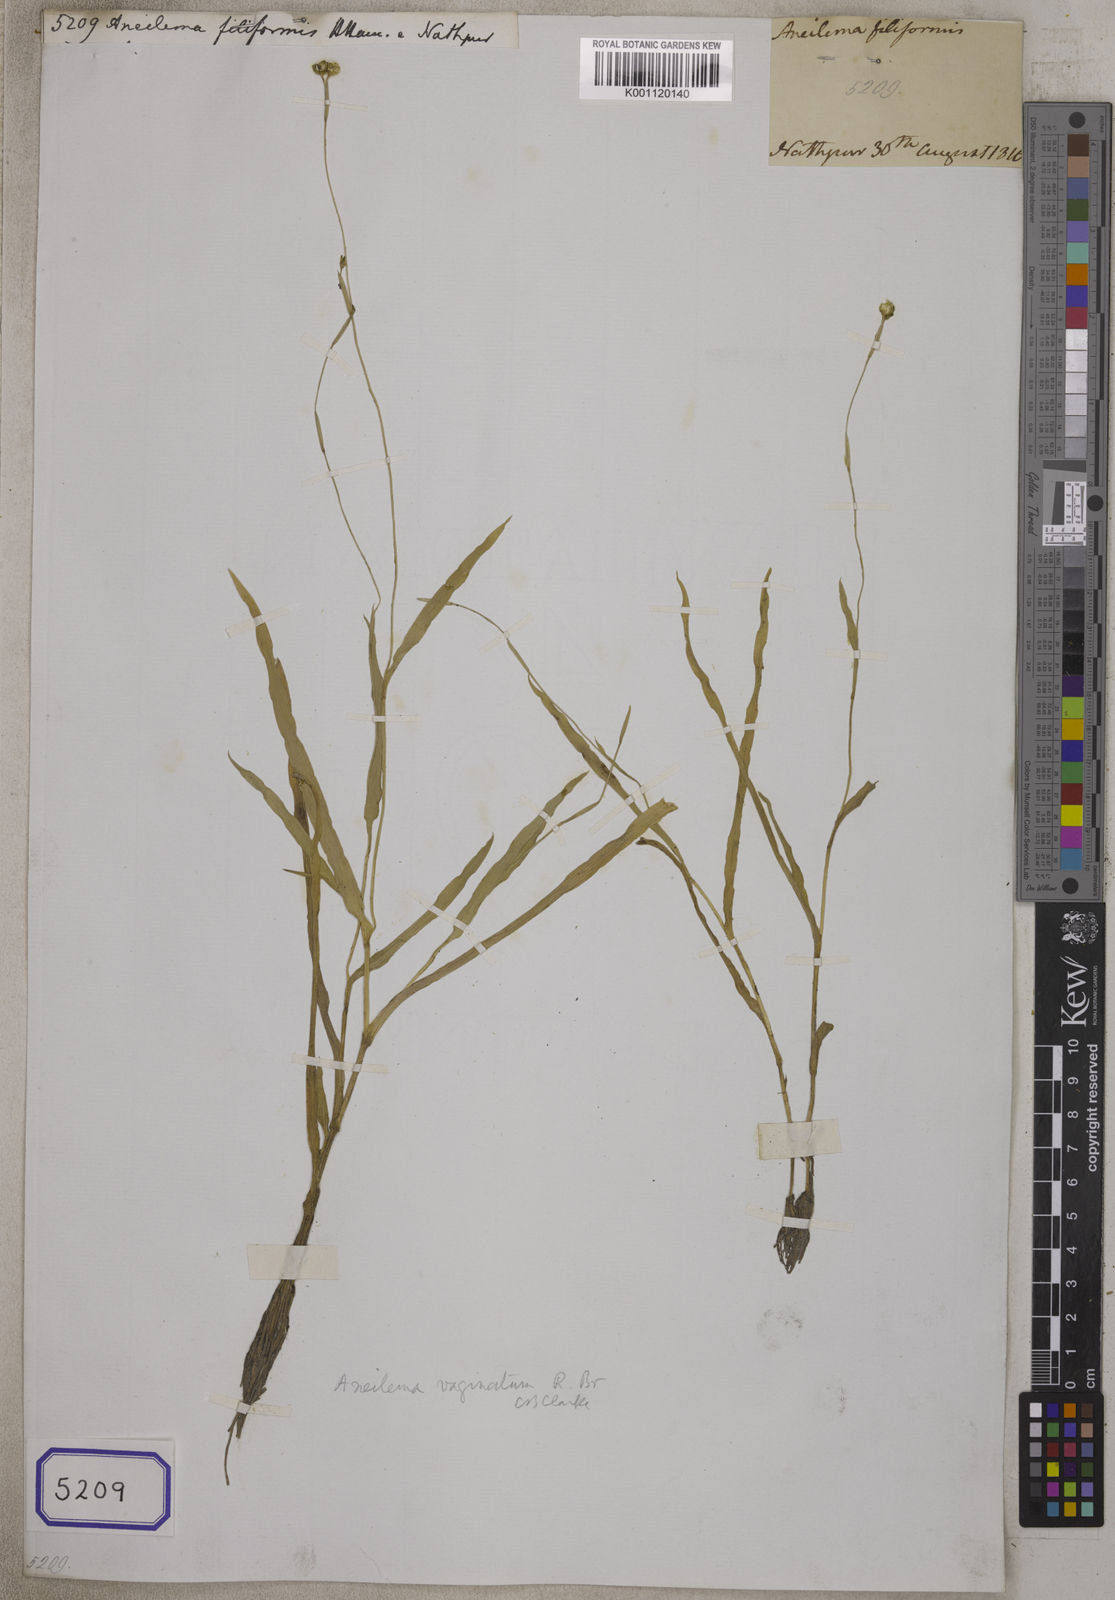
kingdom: Plantae
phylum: Tracheophyta
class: Liliopsida
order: Commelinales
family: Commelinaceae
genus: Aneilema
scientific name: Aneilema
